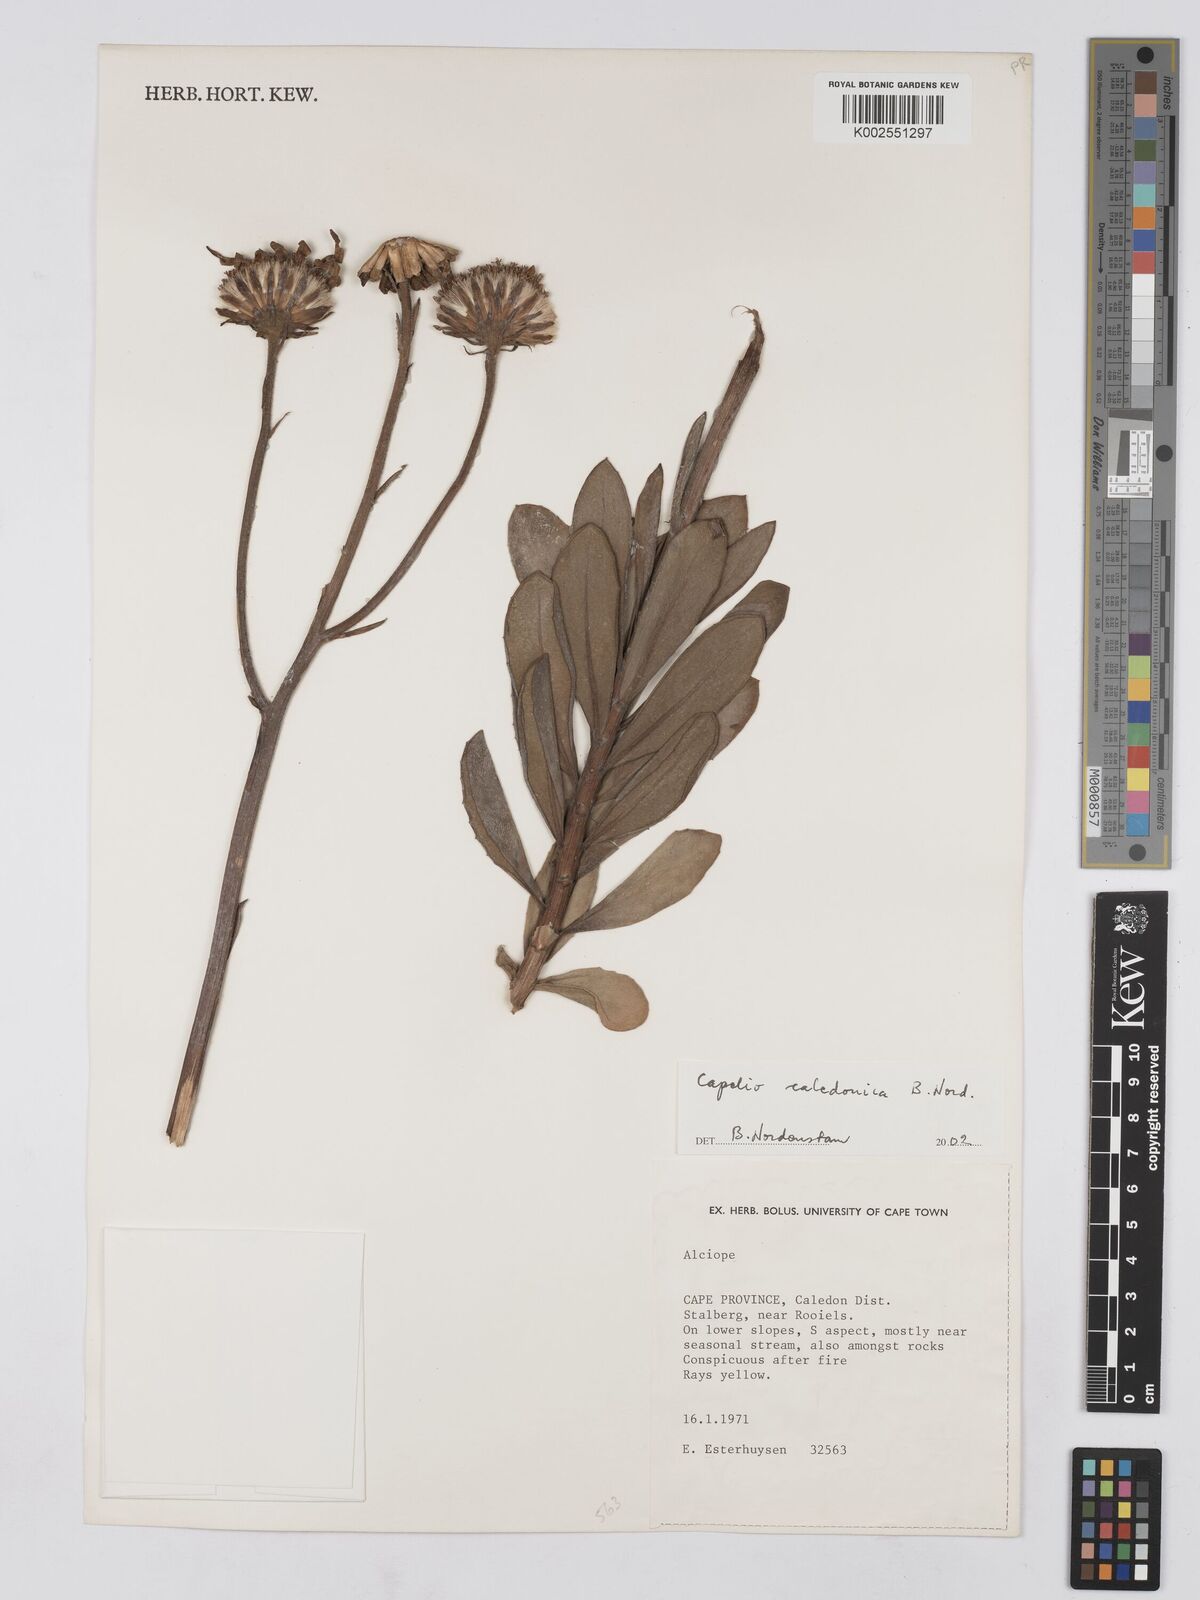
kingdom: Plantae
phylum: Tracheophyta
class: Magnoliopsida
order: Asterales
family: Asteraceae
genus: Capelio
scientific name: Capelio caledonica
